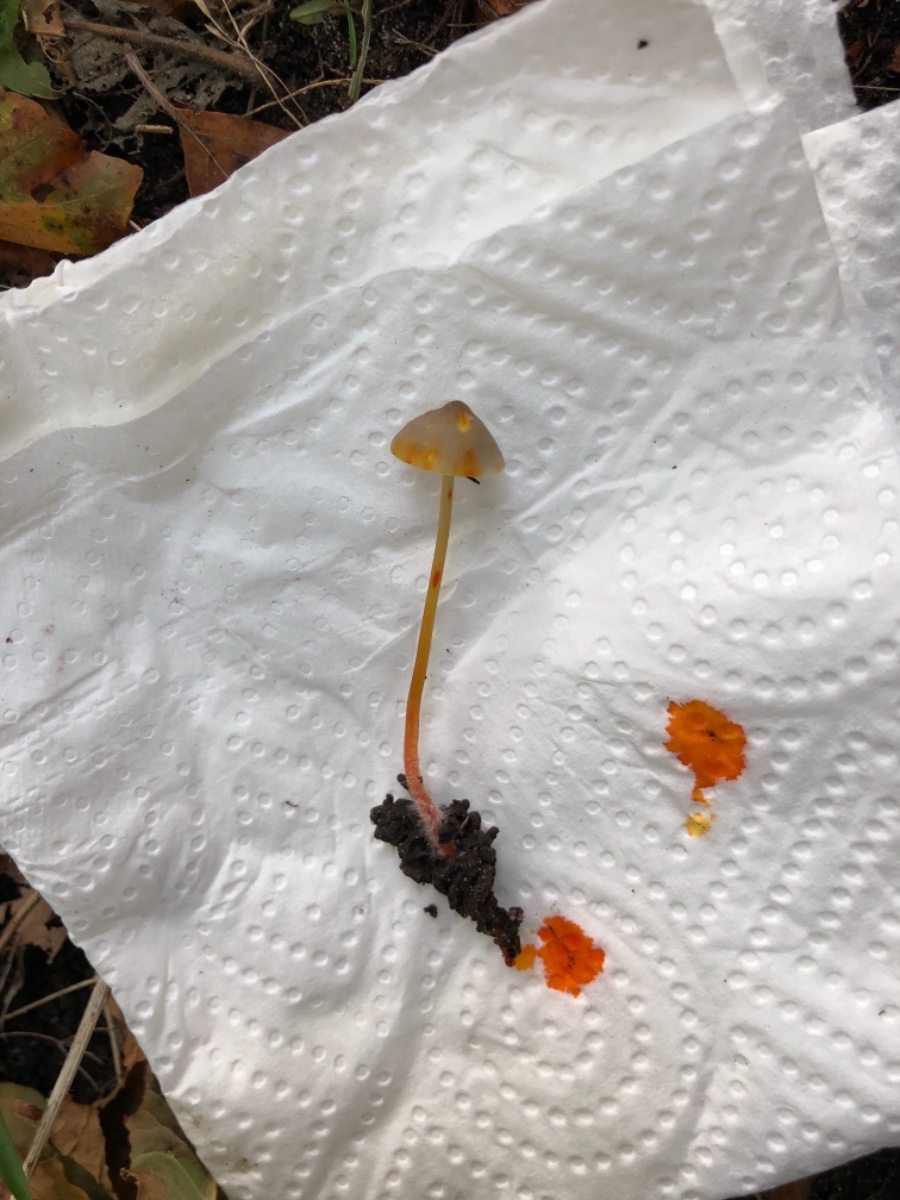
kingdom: Fungi
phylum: Basidiomycota
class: Agaricomycetes
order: Agaricales
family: Mycenaceae
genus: Mycena
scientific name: Mycena crocata
